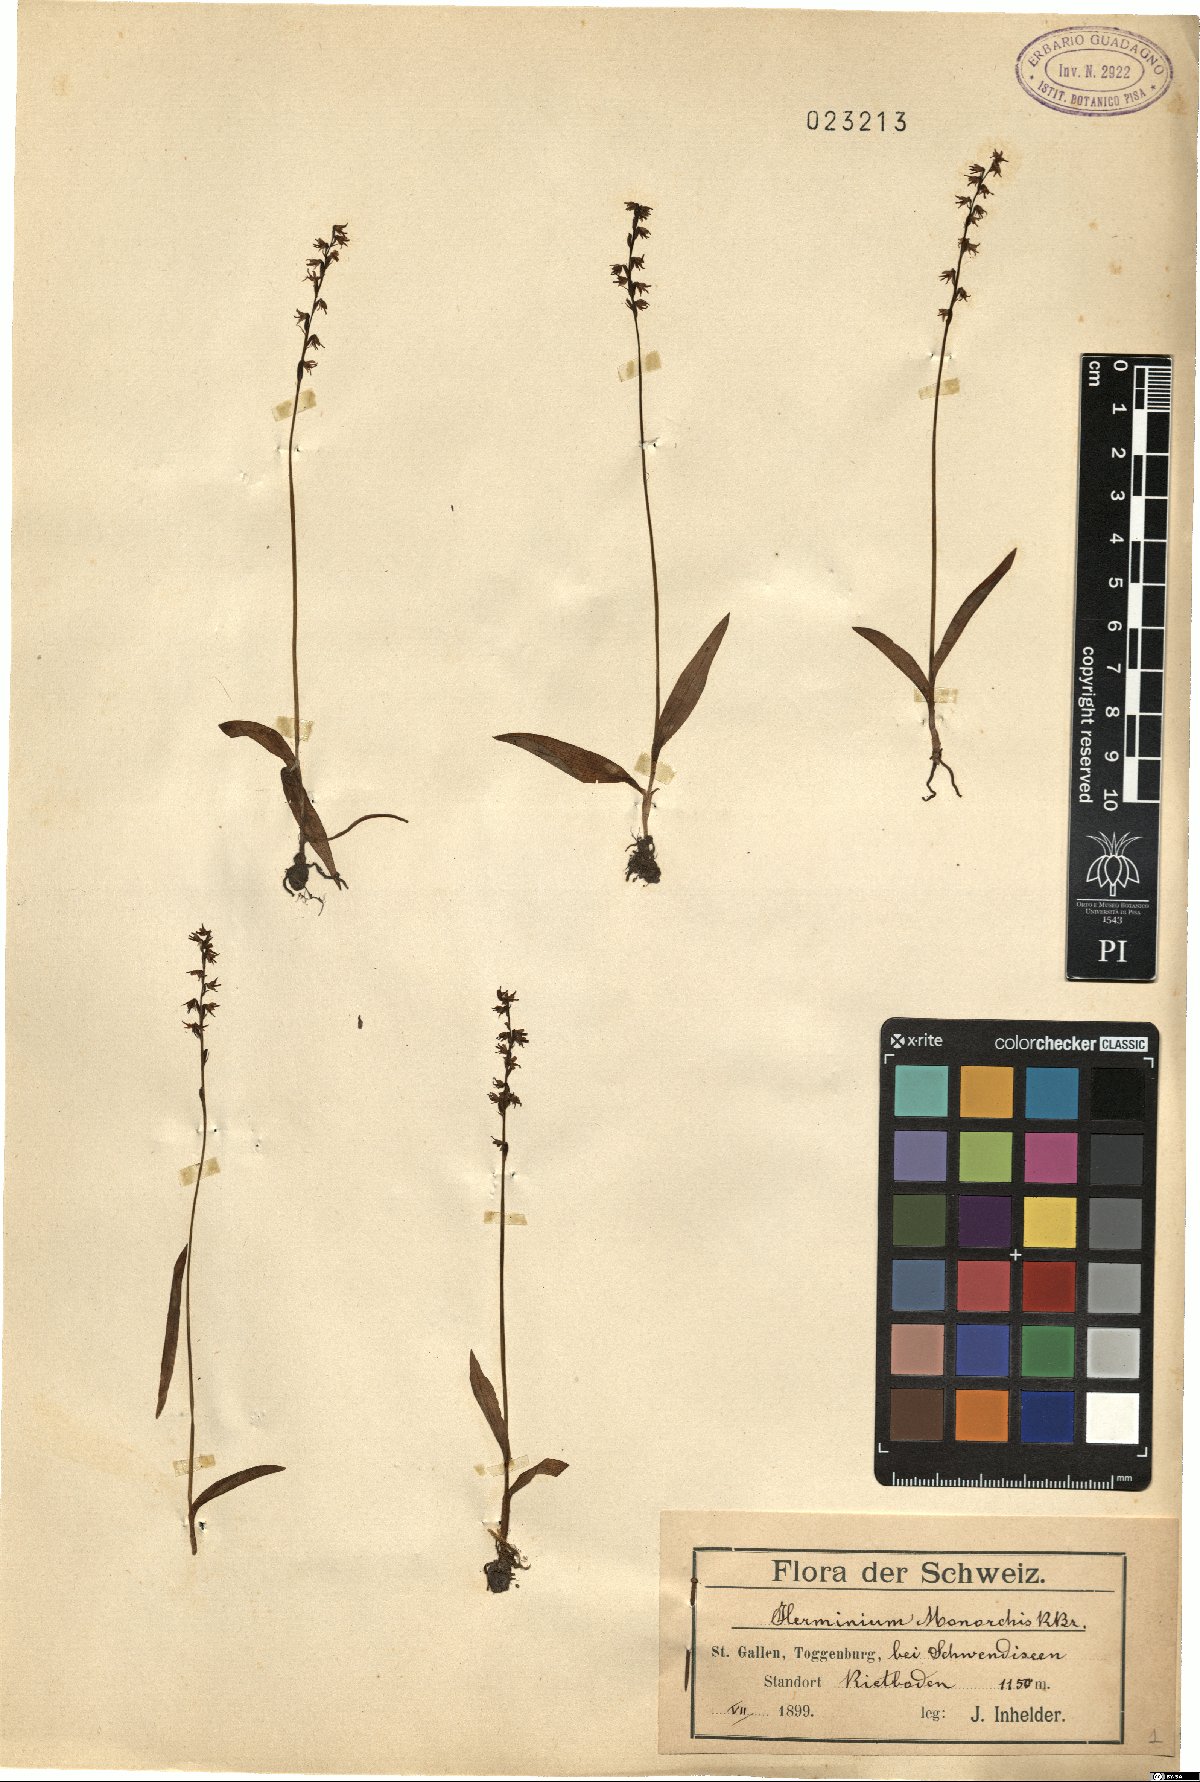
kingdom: Plantae
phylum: Tracheophyta
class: Liliopsida
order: Asparagales
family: Orchidaceae
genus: Herminium
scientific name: Herminium monorchis
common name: Musk orchid
